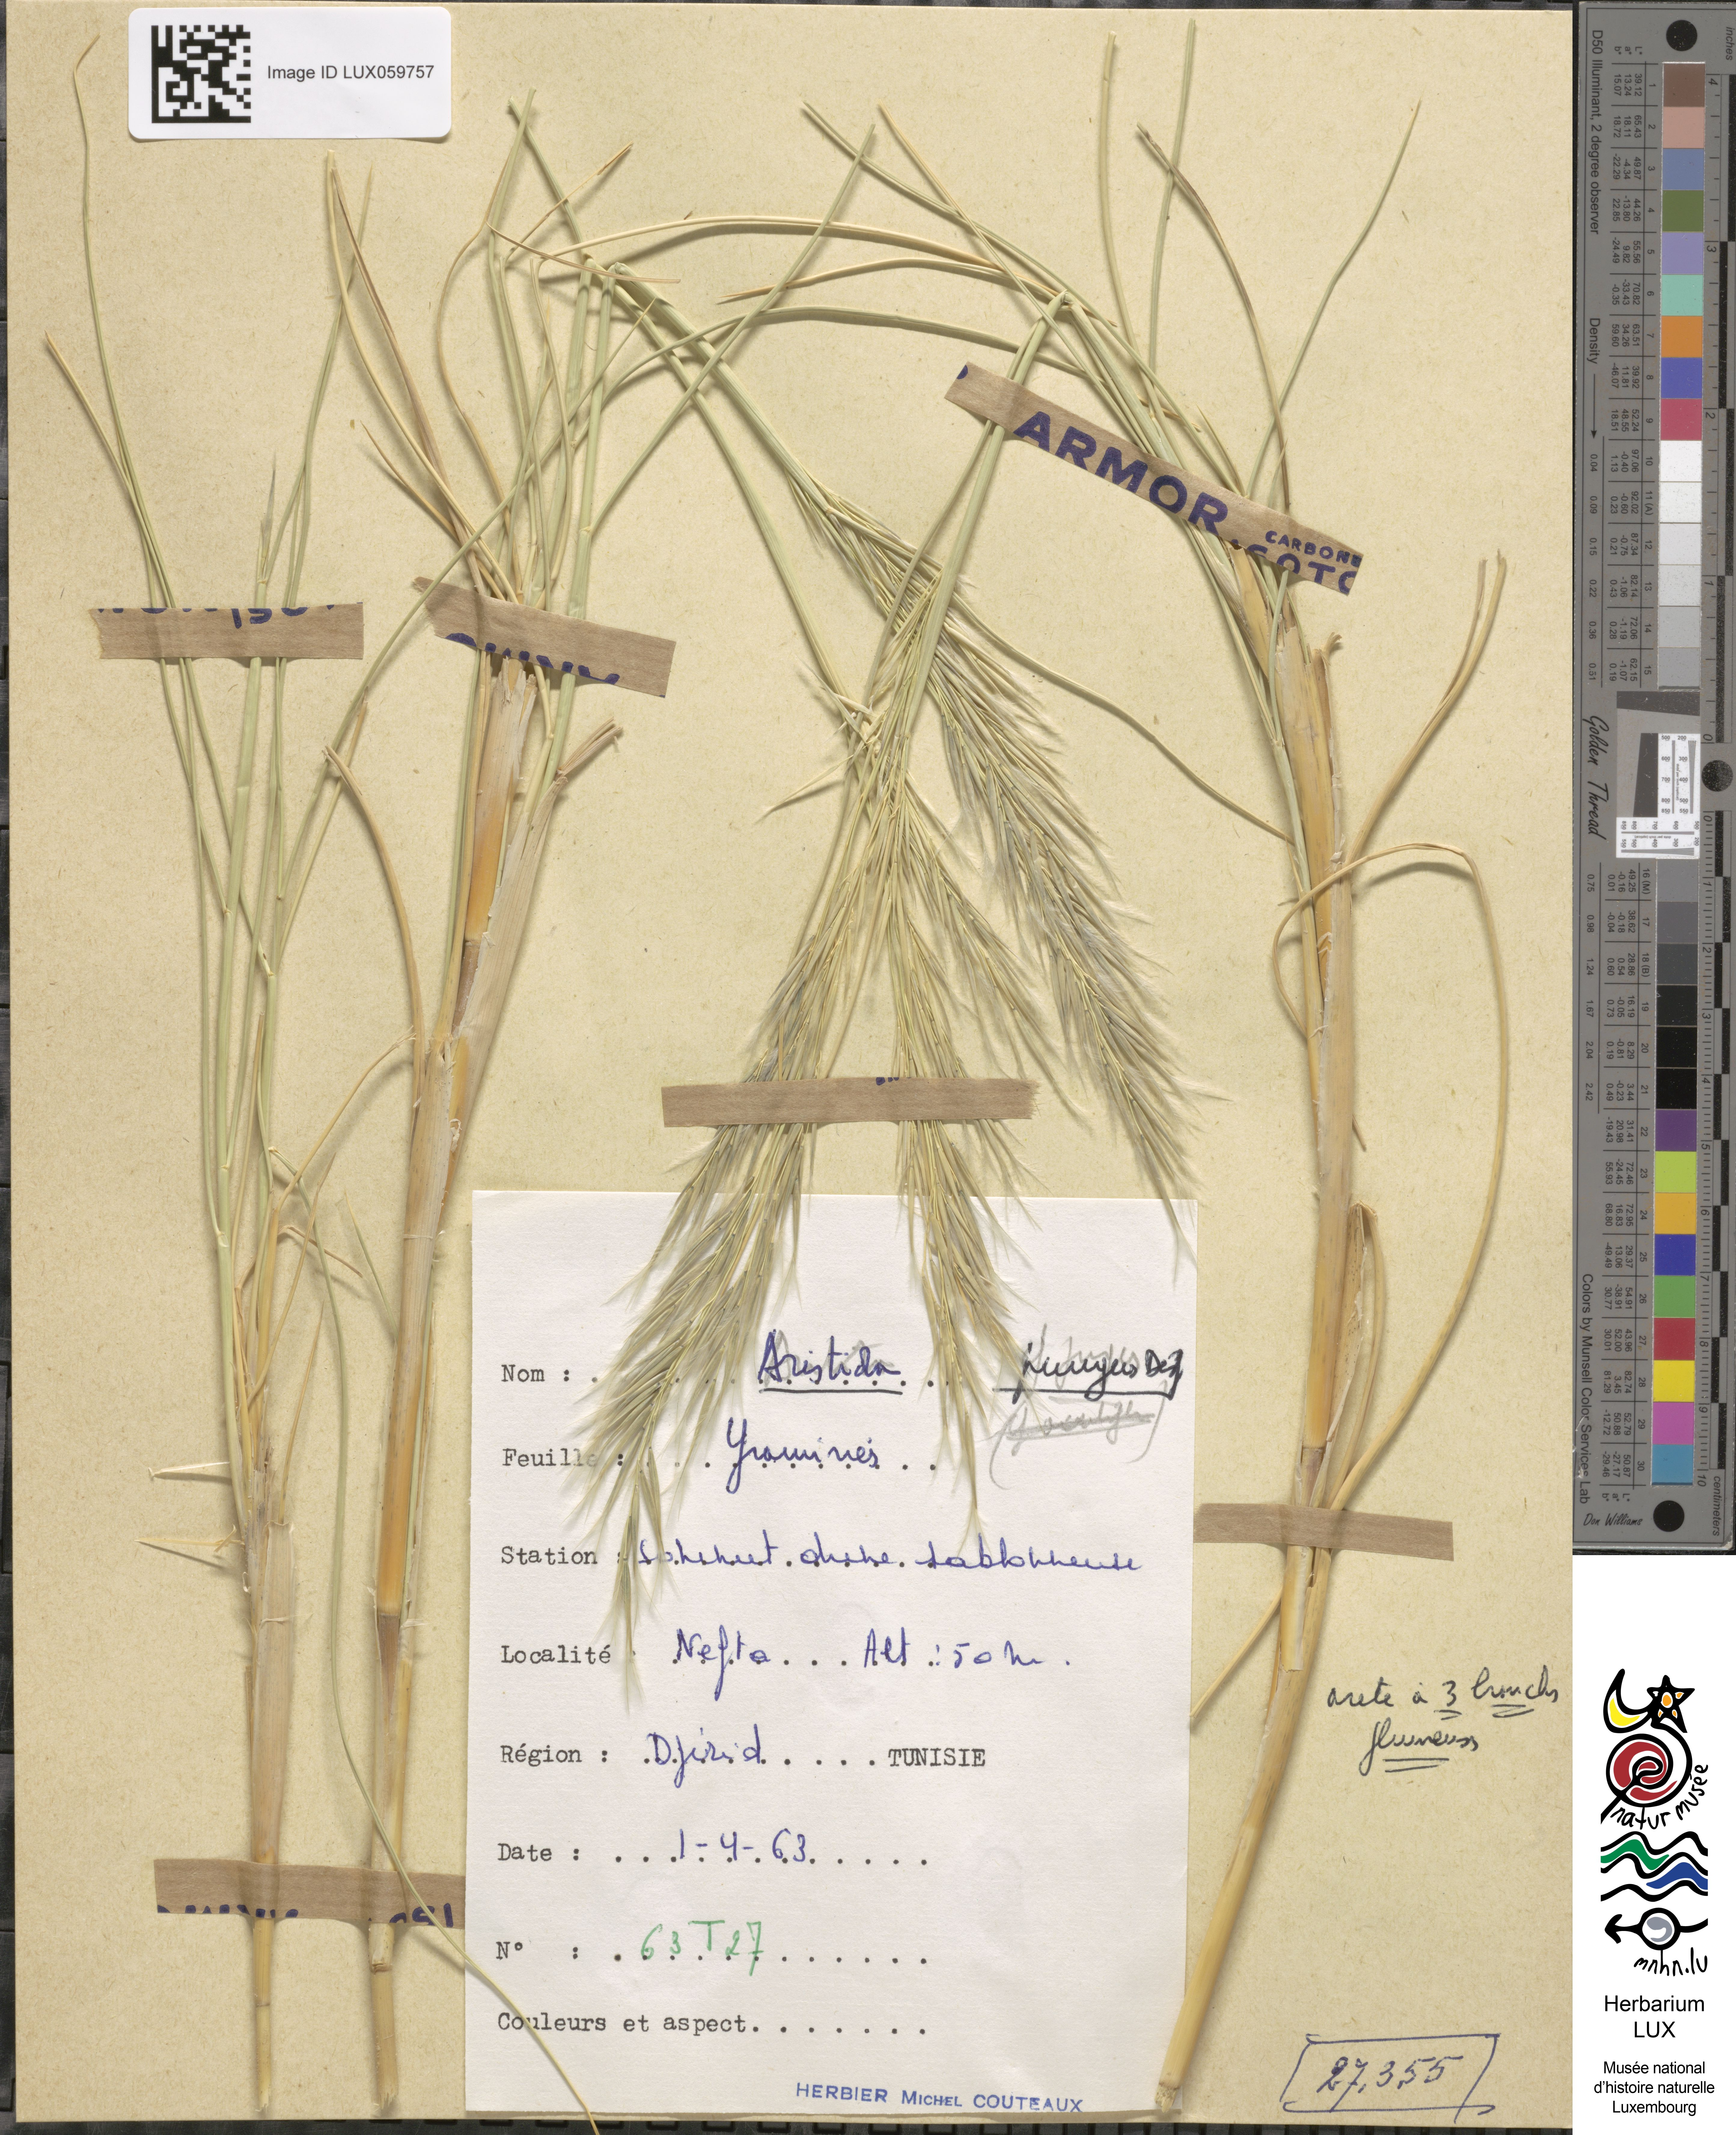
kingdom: Plantae
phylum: Tracheophyta
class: Liliopsida
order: Poales
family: Poaceae
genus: Stipagrostis
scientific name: Stipagrostis pungens
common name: Three-awn grass
